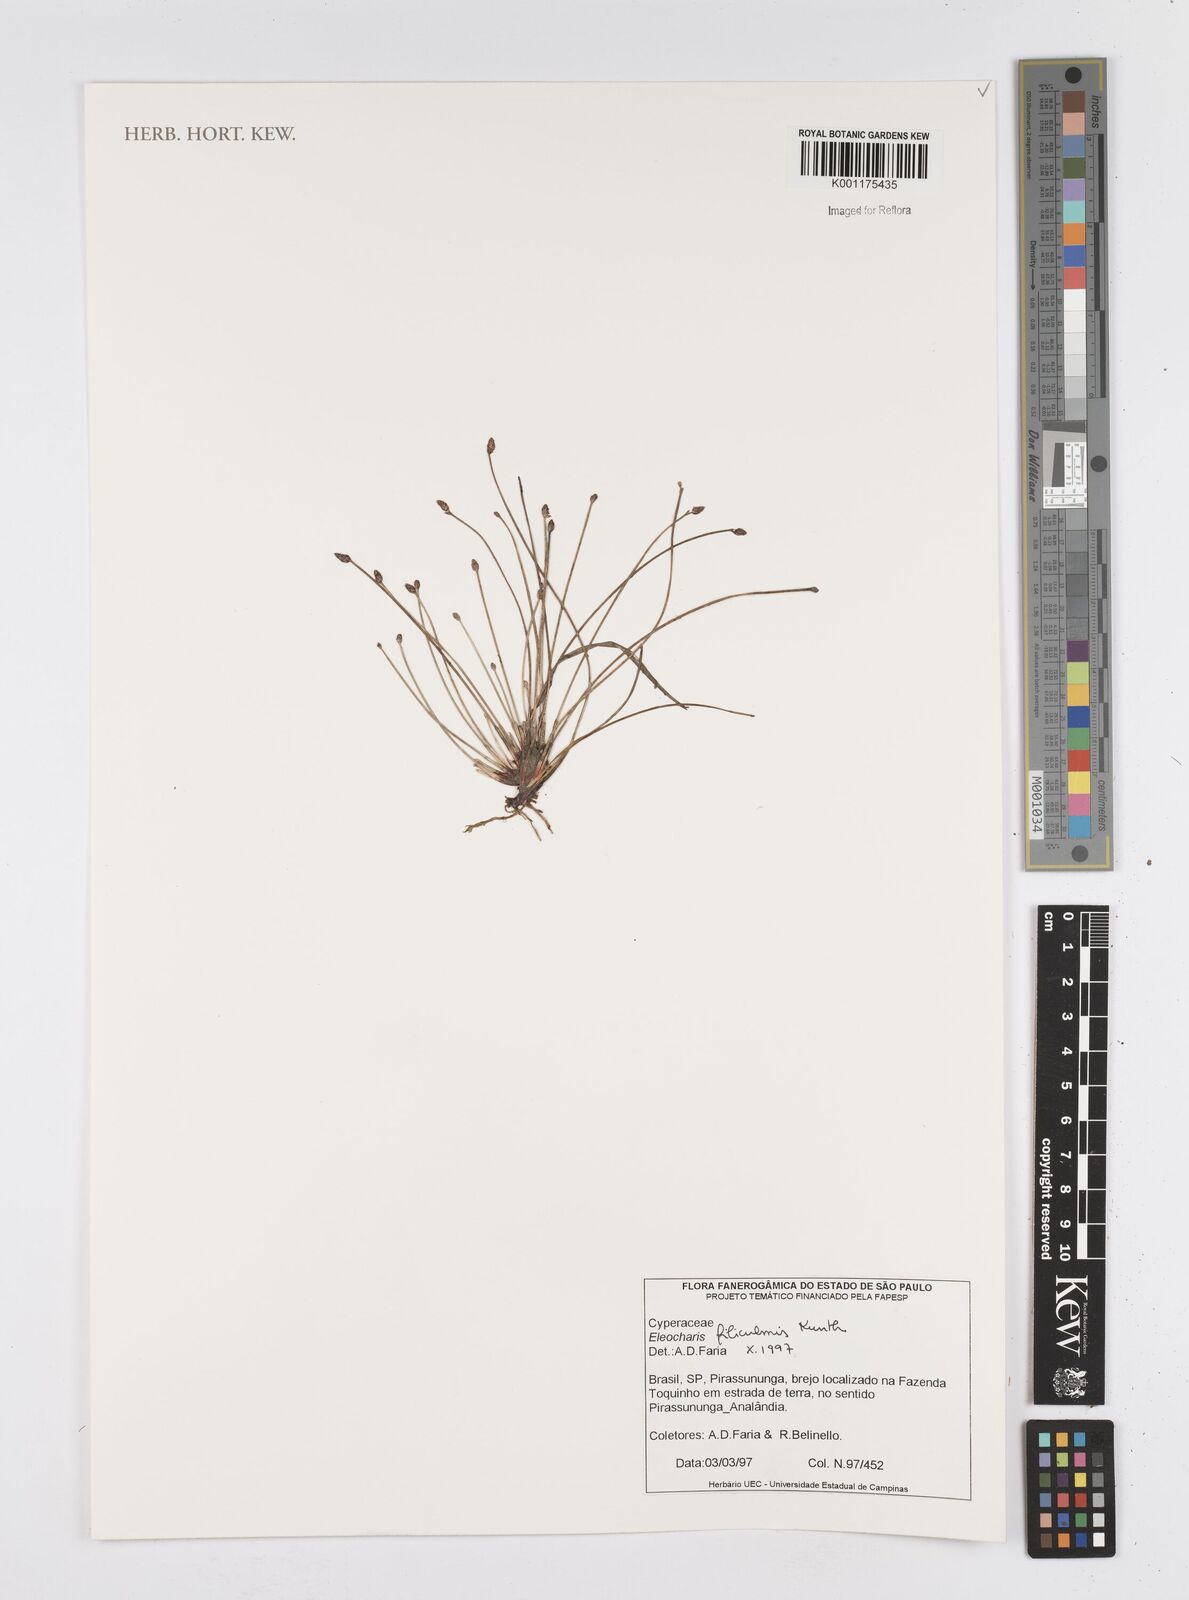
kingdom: Plantae
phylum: Tracheophyta
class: Liliopsida
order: Poales
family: Cyperaceae
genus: Eleocharis
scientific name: Eleocharis filiculmis
